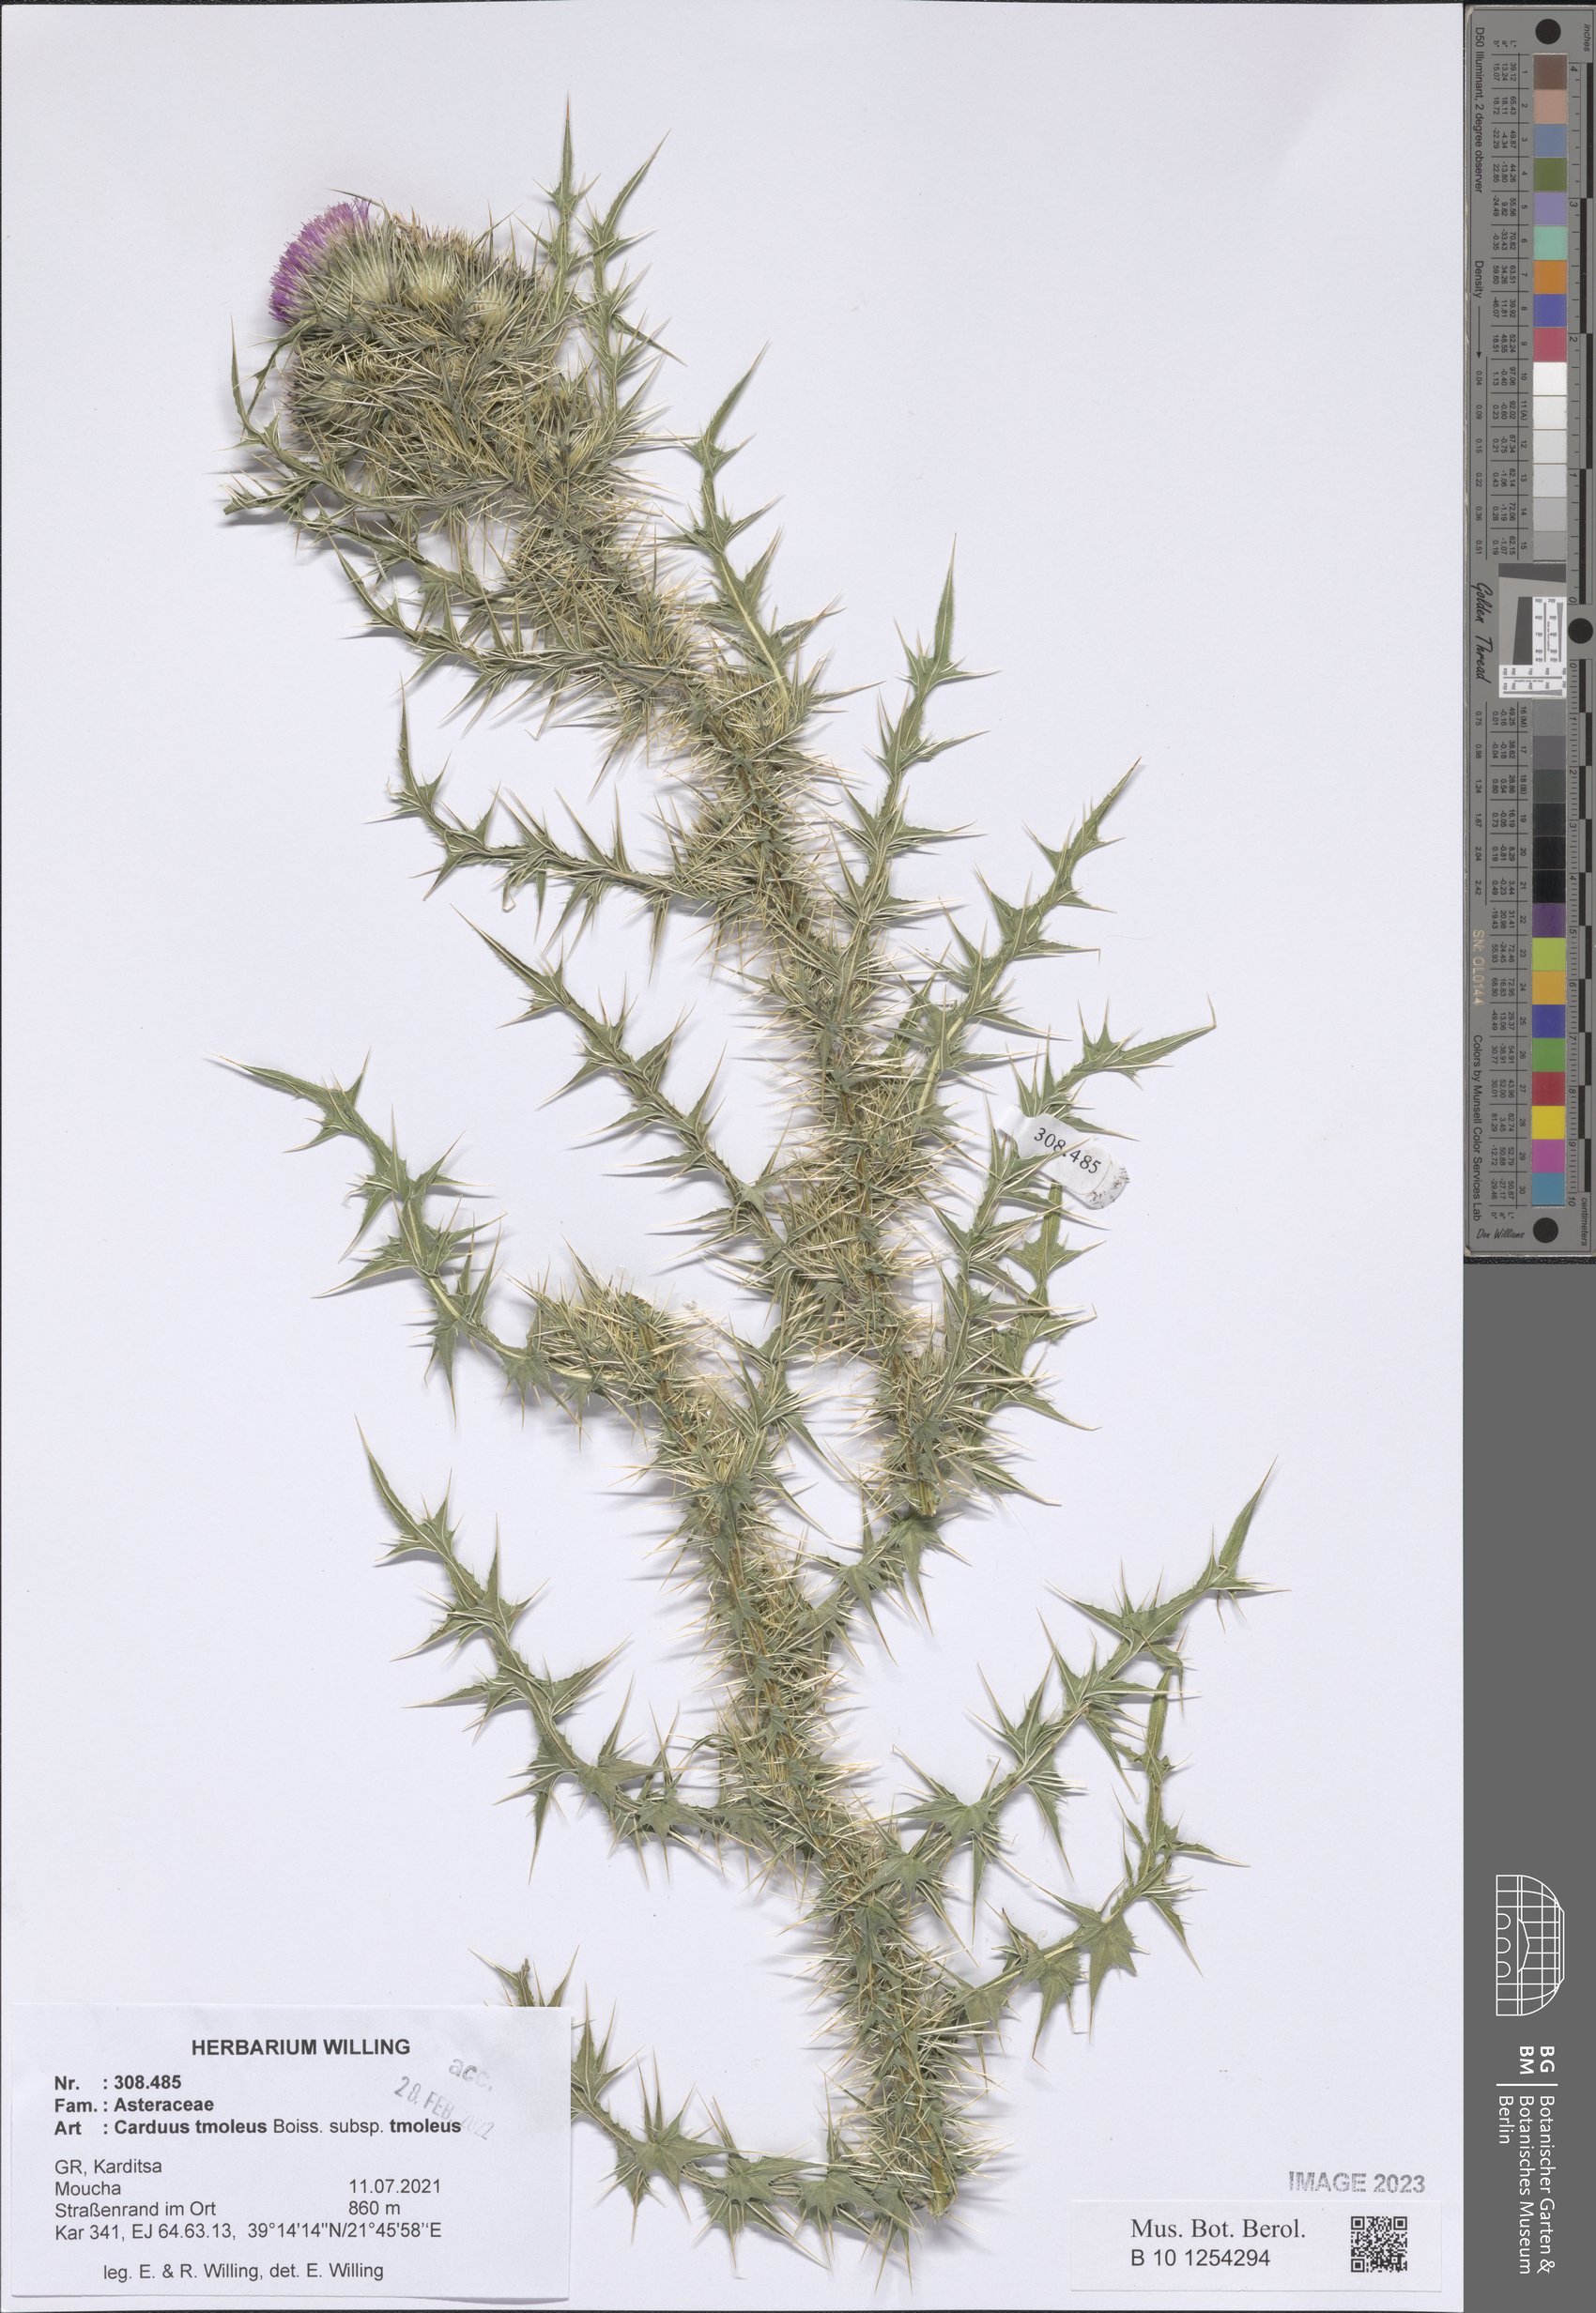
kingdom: Plantae
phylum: Tracheophyta
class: Magnoliopsida
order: Asterales
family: Asteraceae
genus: Carduus
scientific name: Carduus tmoleus
